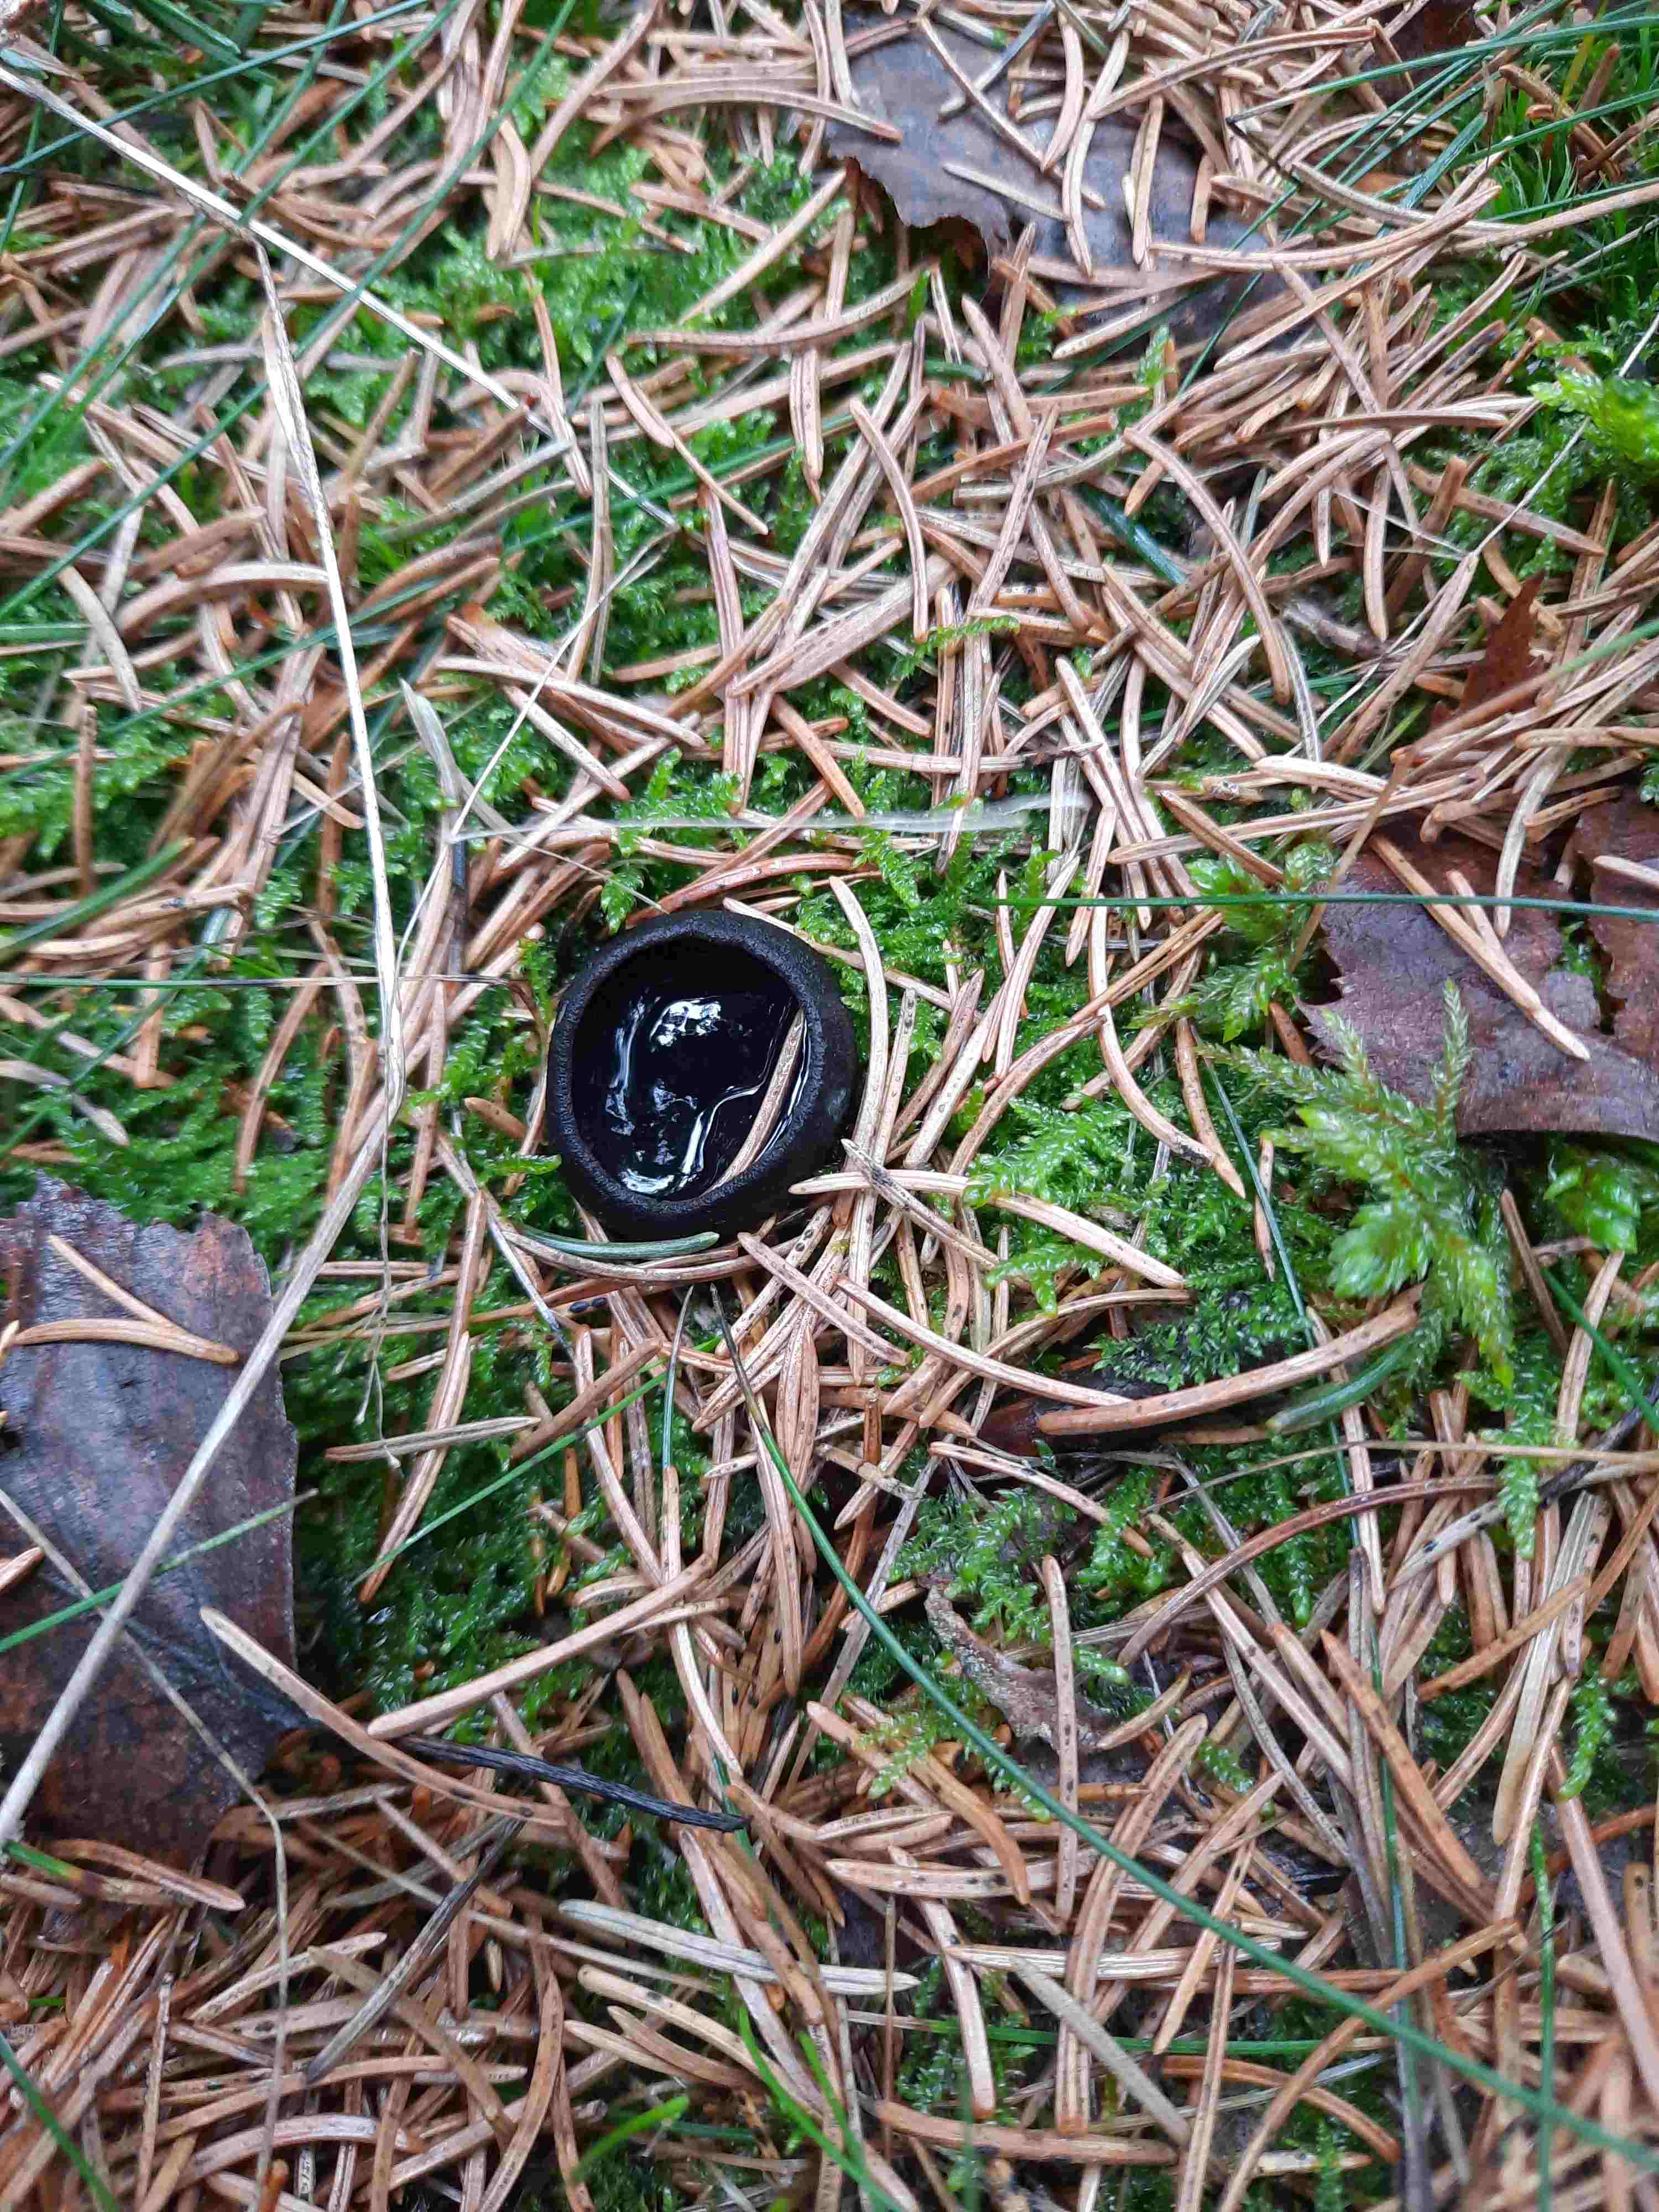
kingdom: Fungi
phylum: Ascomycota
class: Pezizomycetes
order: Pezizales
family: Sarcosomataceae
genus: Pseudoplectania
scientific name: Pseudoplectania nigrella
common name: almindelig sortbæger
